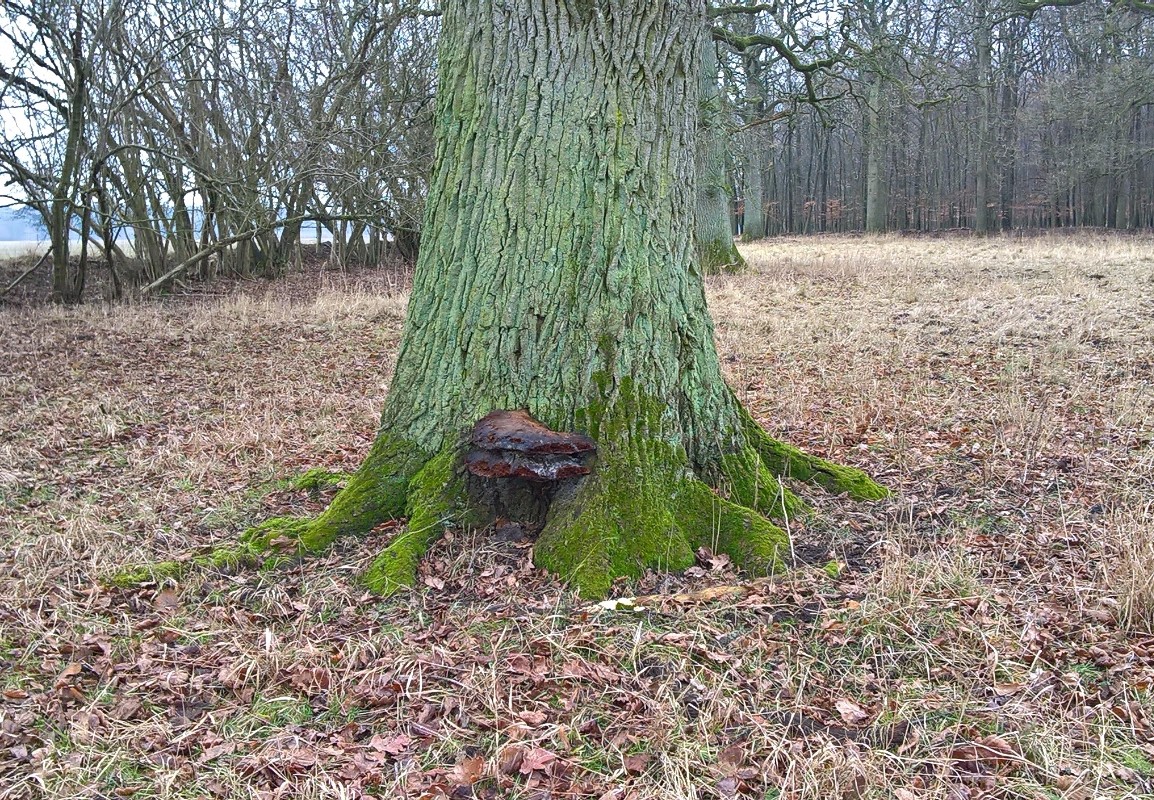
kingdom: Fungi
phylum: Basidiomycota
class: Agaricomycetes
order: Hymenochaetales
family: Hymenochaetaceae
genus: Pseudoinonotus
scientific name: Pseudoinonotus dryadeus
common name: ege-spejlporesvamp
